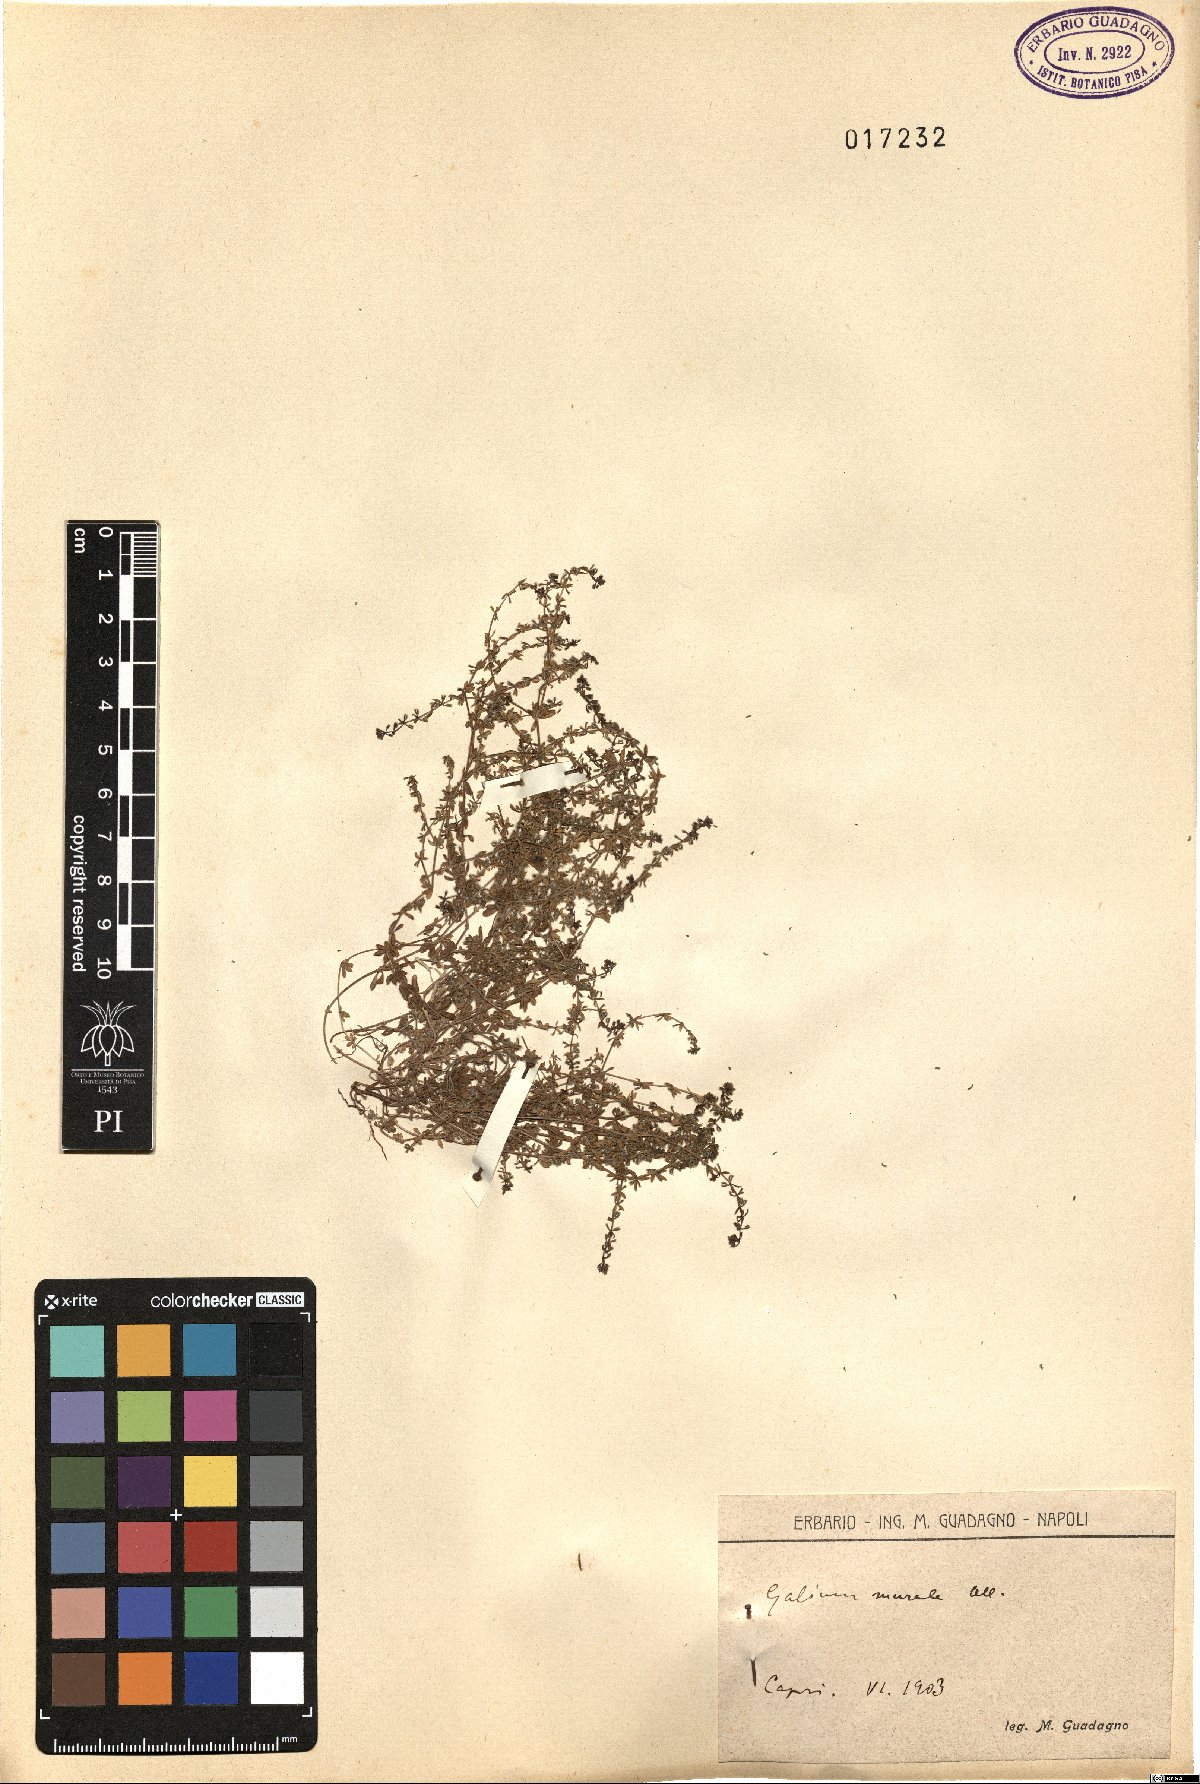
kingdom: Plantae
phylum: Tracheophyta
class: Magnoliopsida
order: Gentianales
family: Rubiaceae
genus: Galium
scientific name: Galium murale
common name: Yellow wall bedstraw
